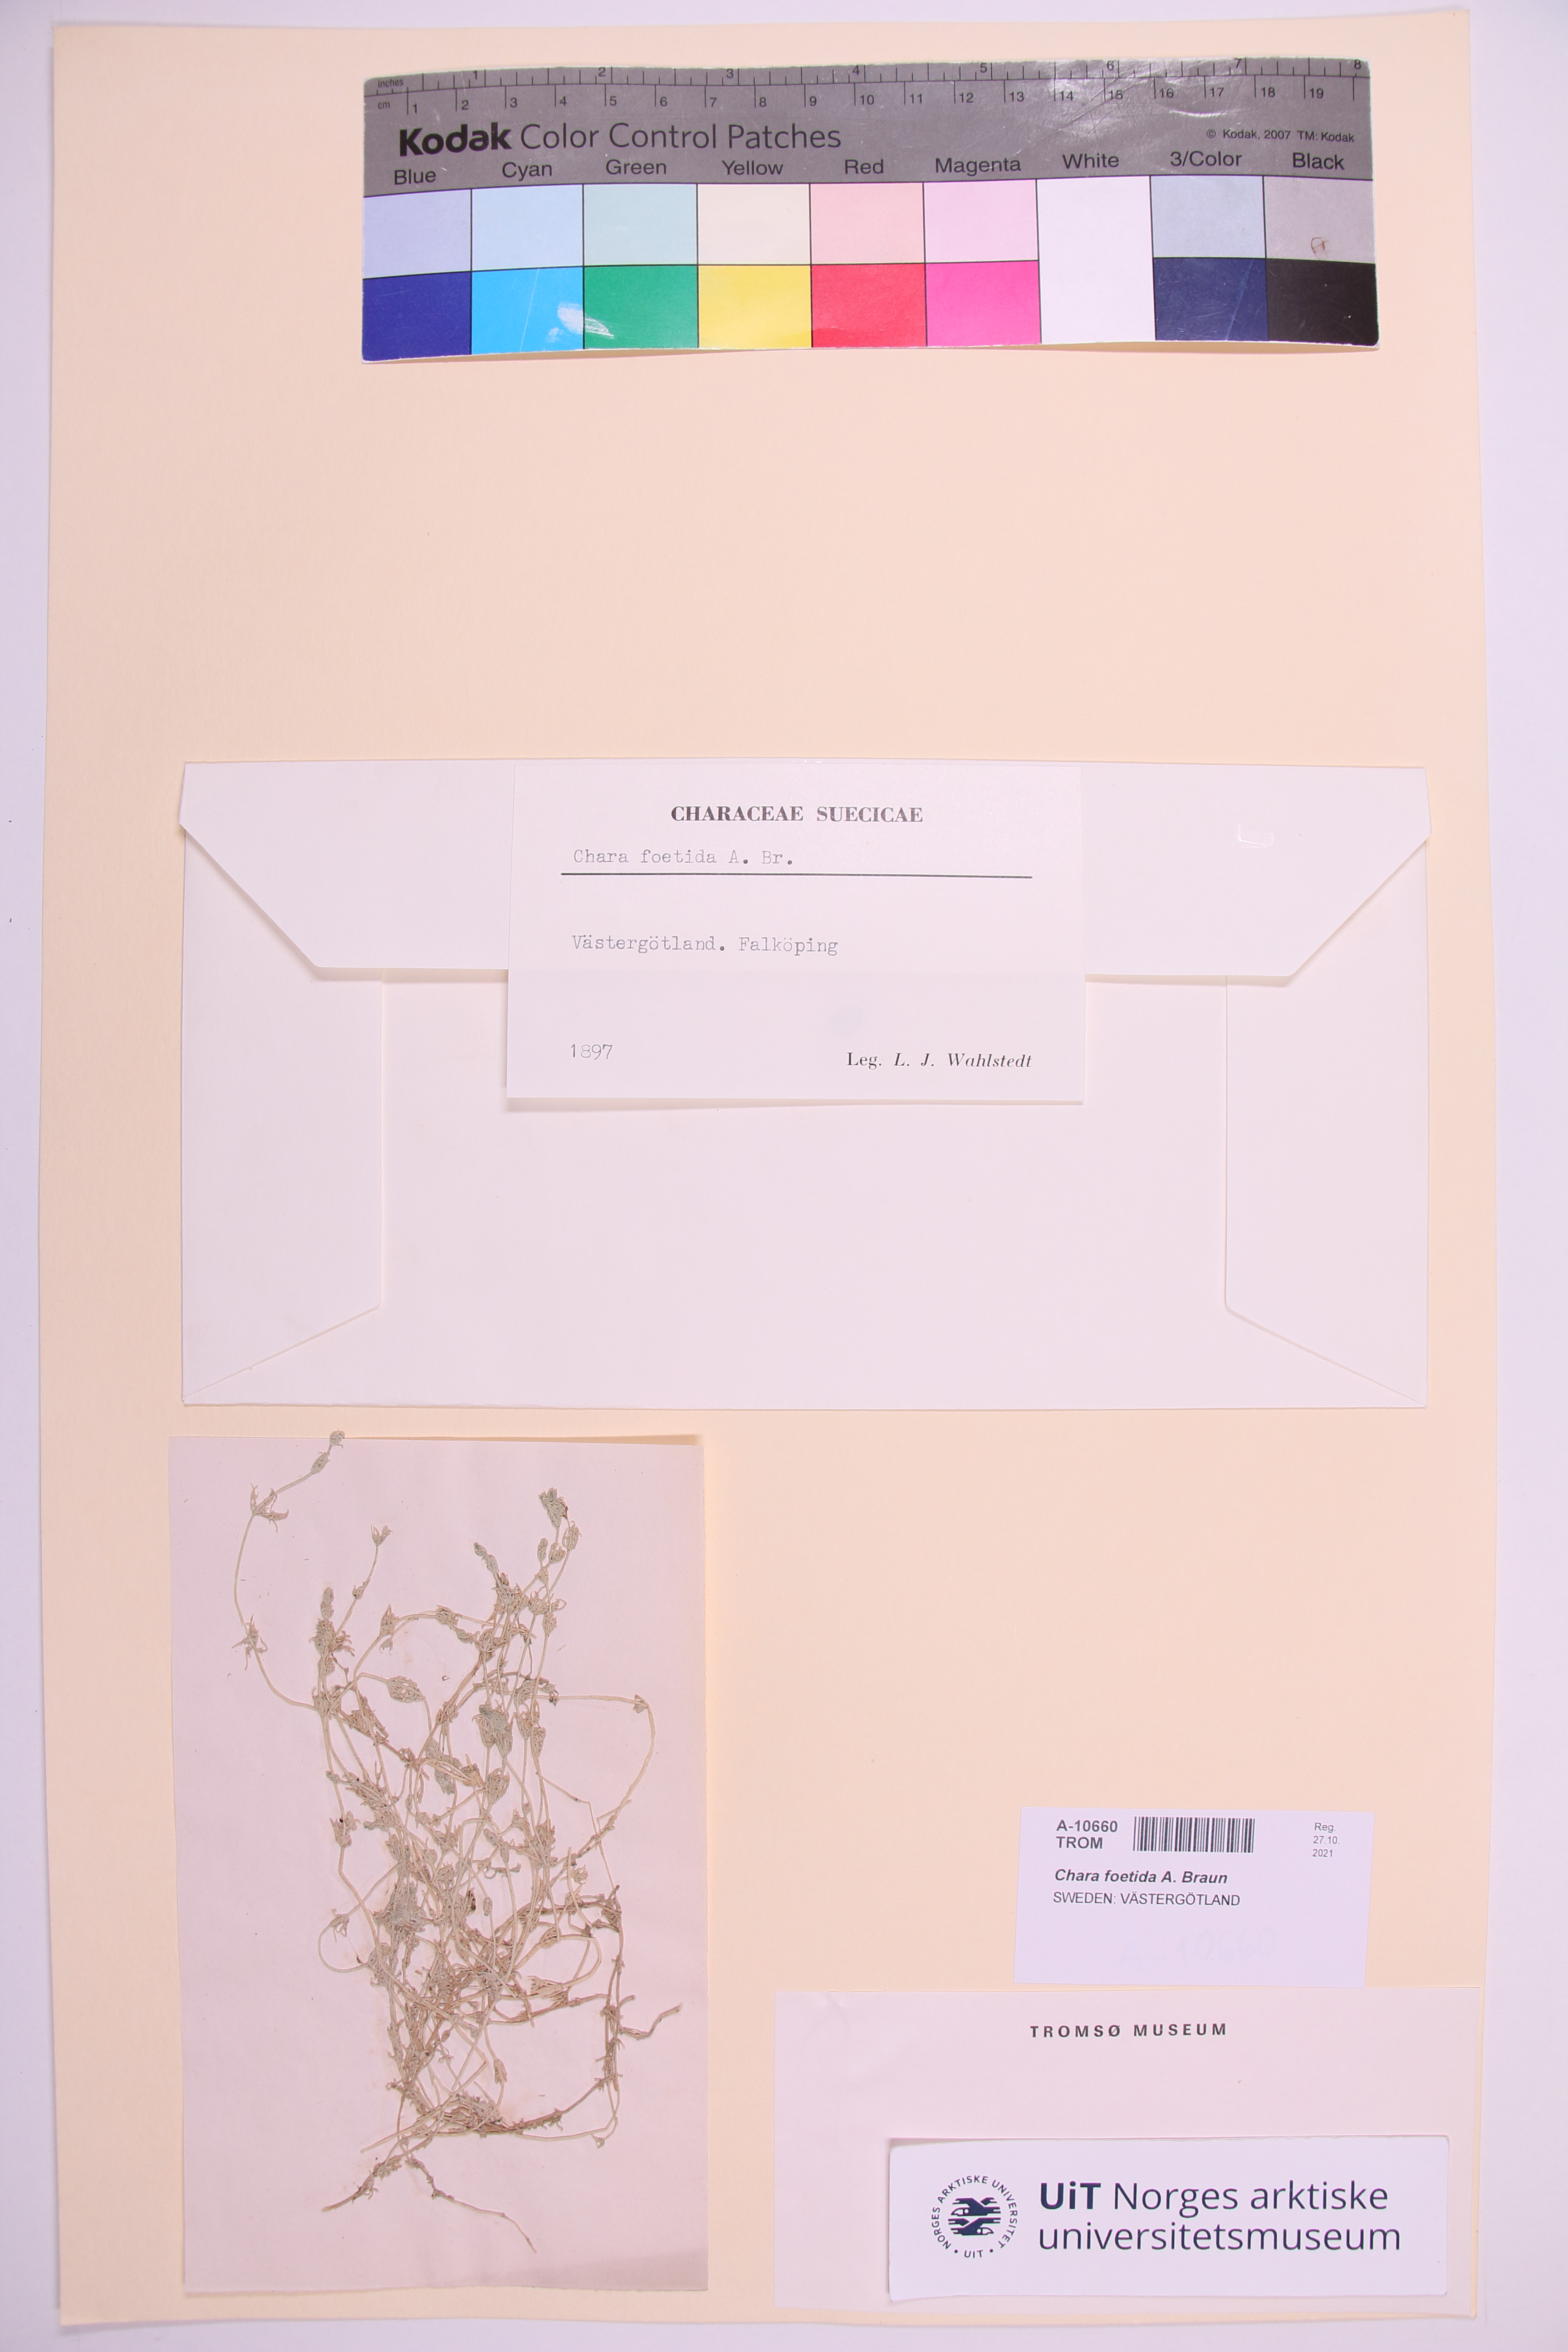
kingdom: Plantae
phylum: Charophyta
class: Charophyceae
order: Charales
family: Characeae
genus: Chara
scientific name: Chara vulgaris
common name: Common stonewort
